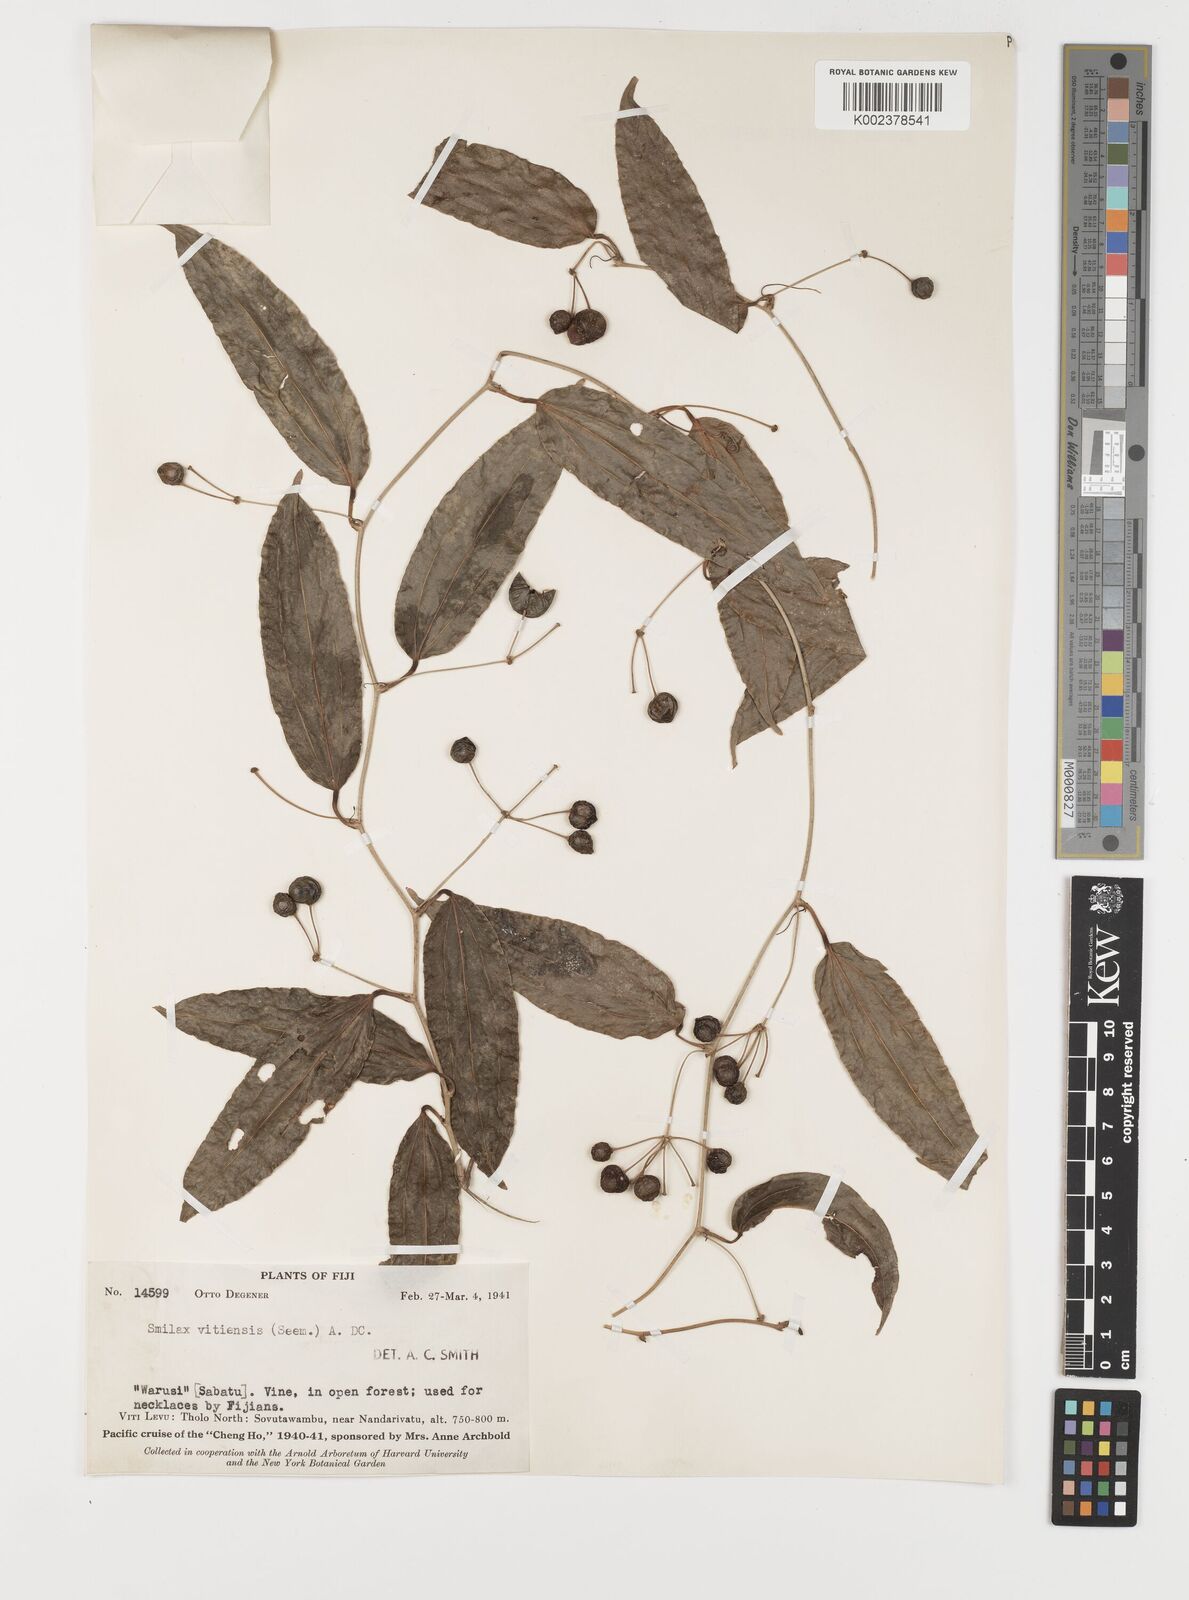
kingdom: Plantae
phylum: Tracheophyta
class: Liliopsida
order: Liliales
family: Smilacaceae
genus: Smilax
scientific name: Smilax vitiensis
